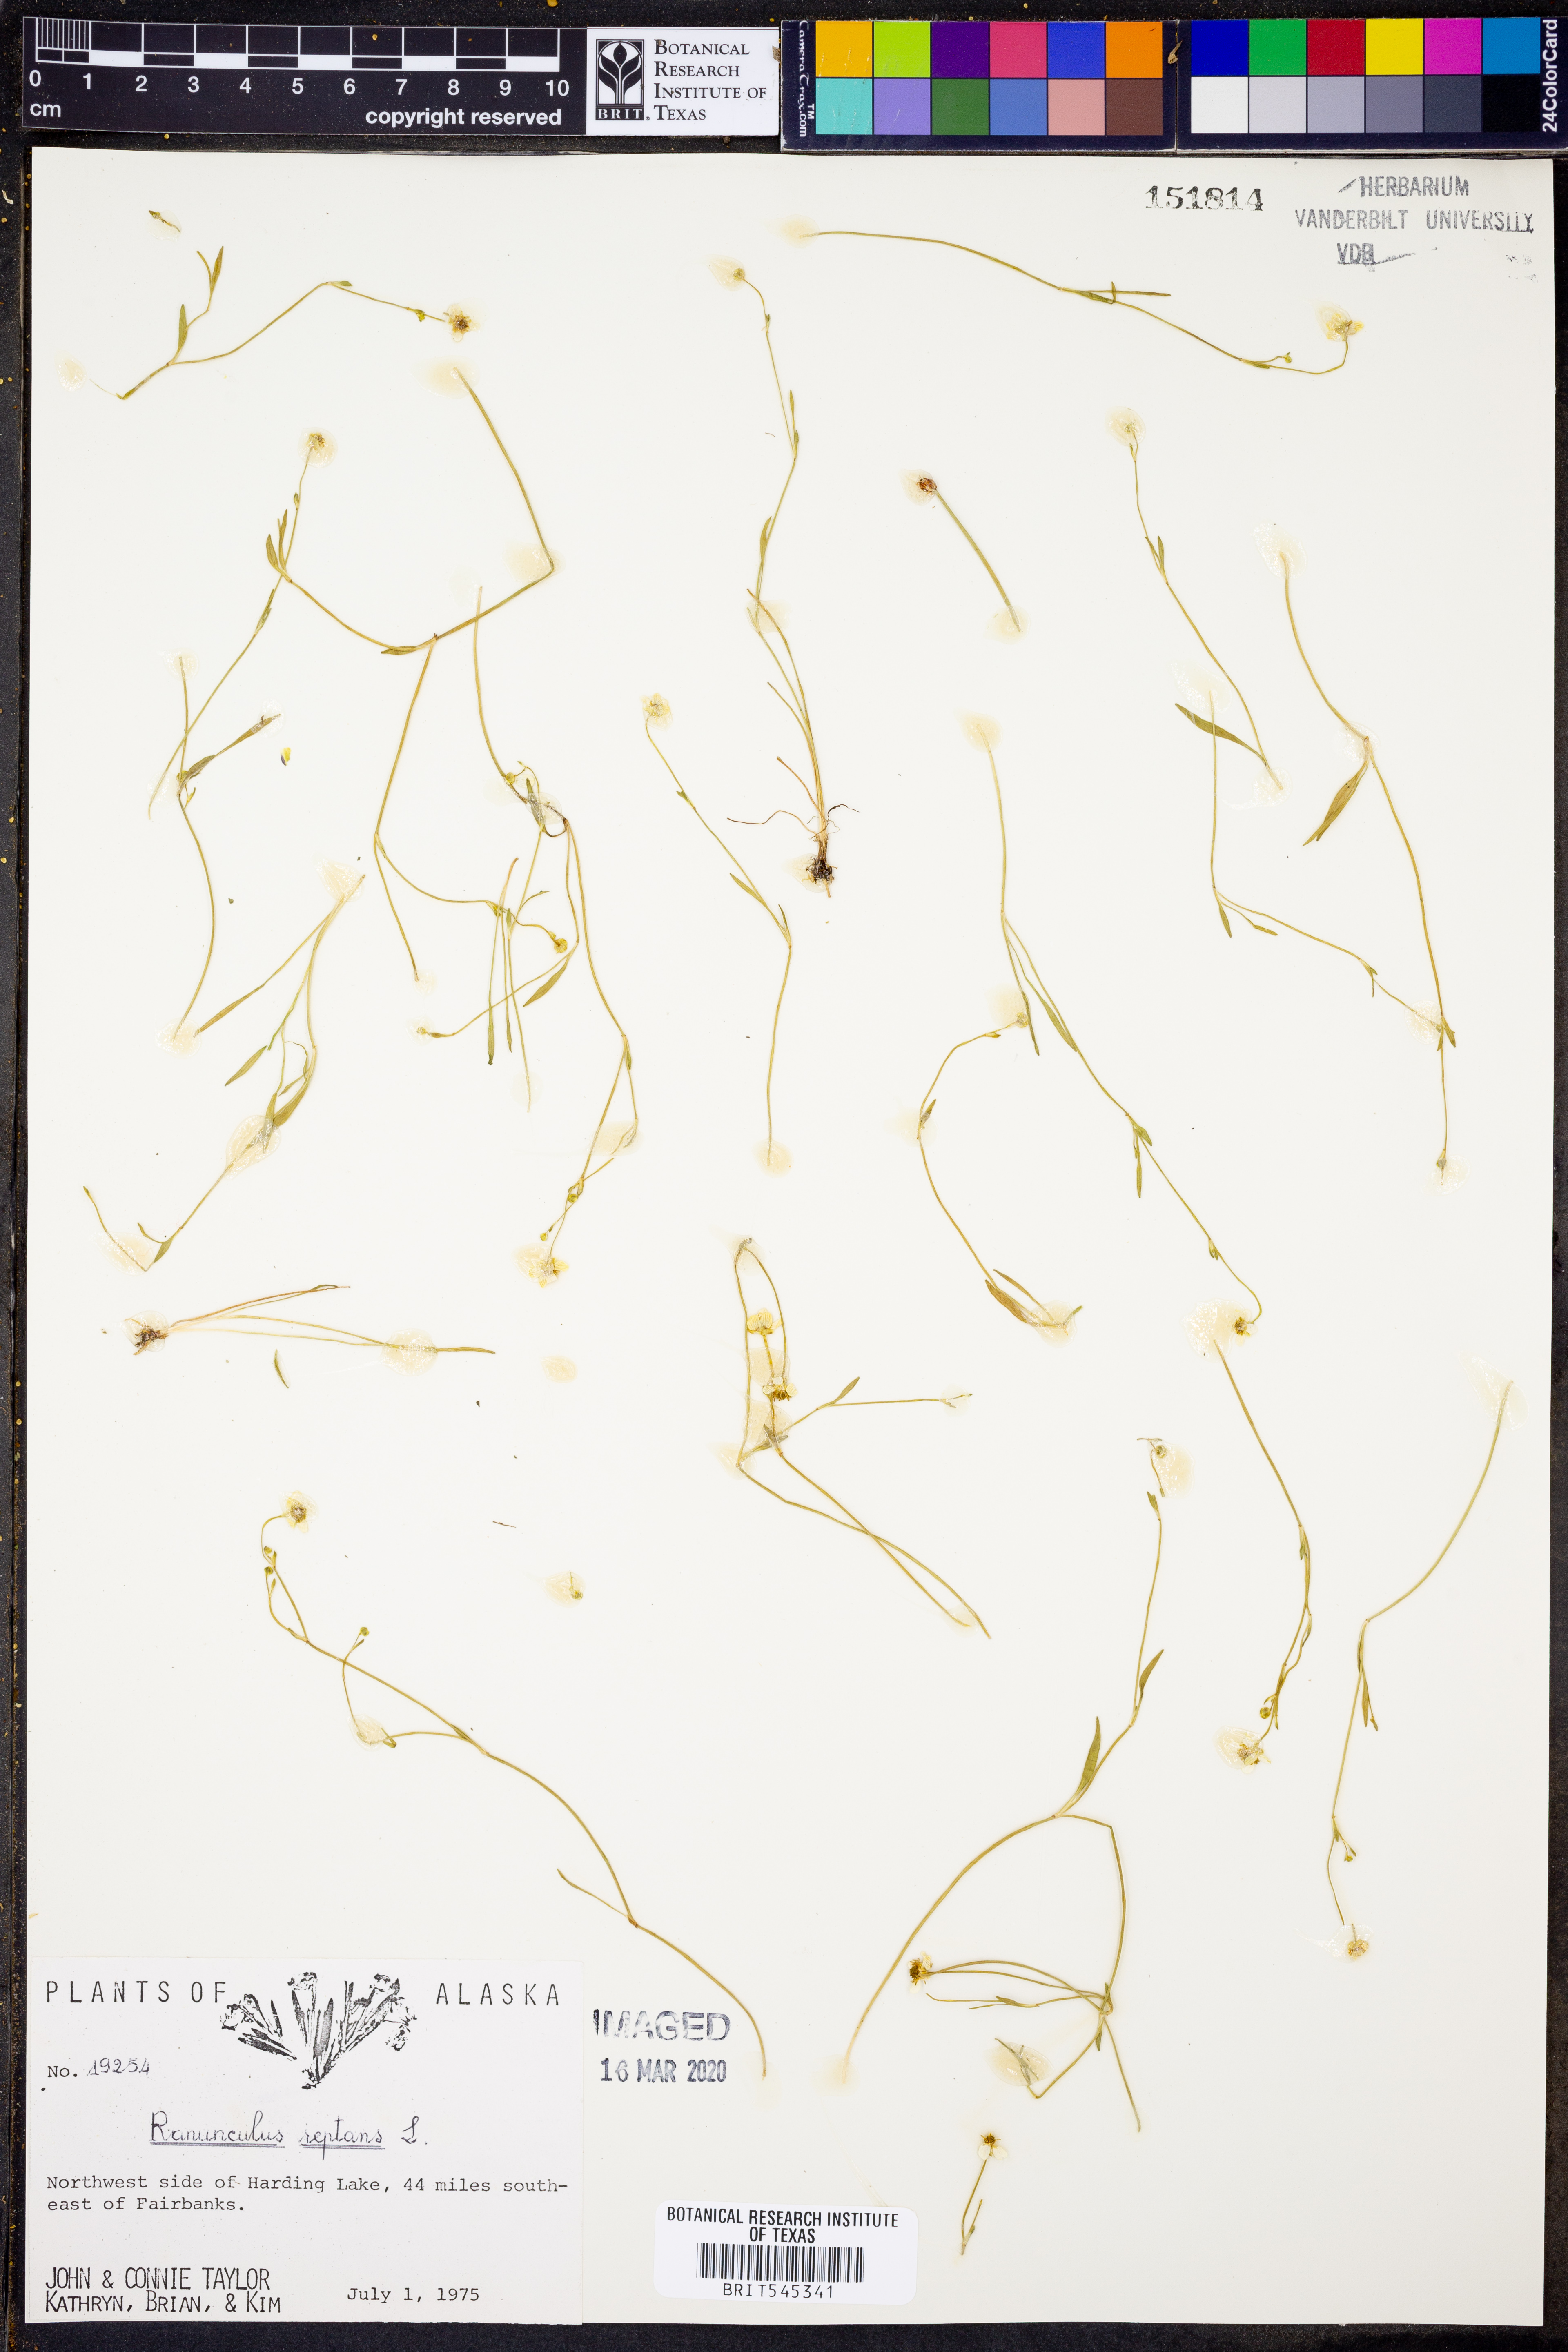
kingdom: Plantae
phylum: Tracheophyta
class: Magnoliopsida
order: Ranunculales
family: Ranunculaceae
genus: Ranunculus
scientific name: Ranunculus reptans
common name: Creeping spearwort
